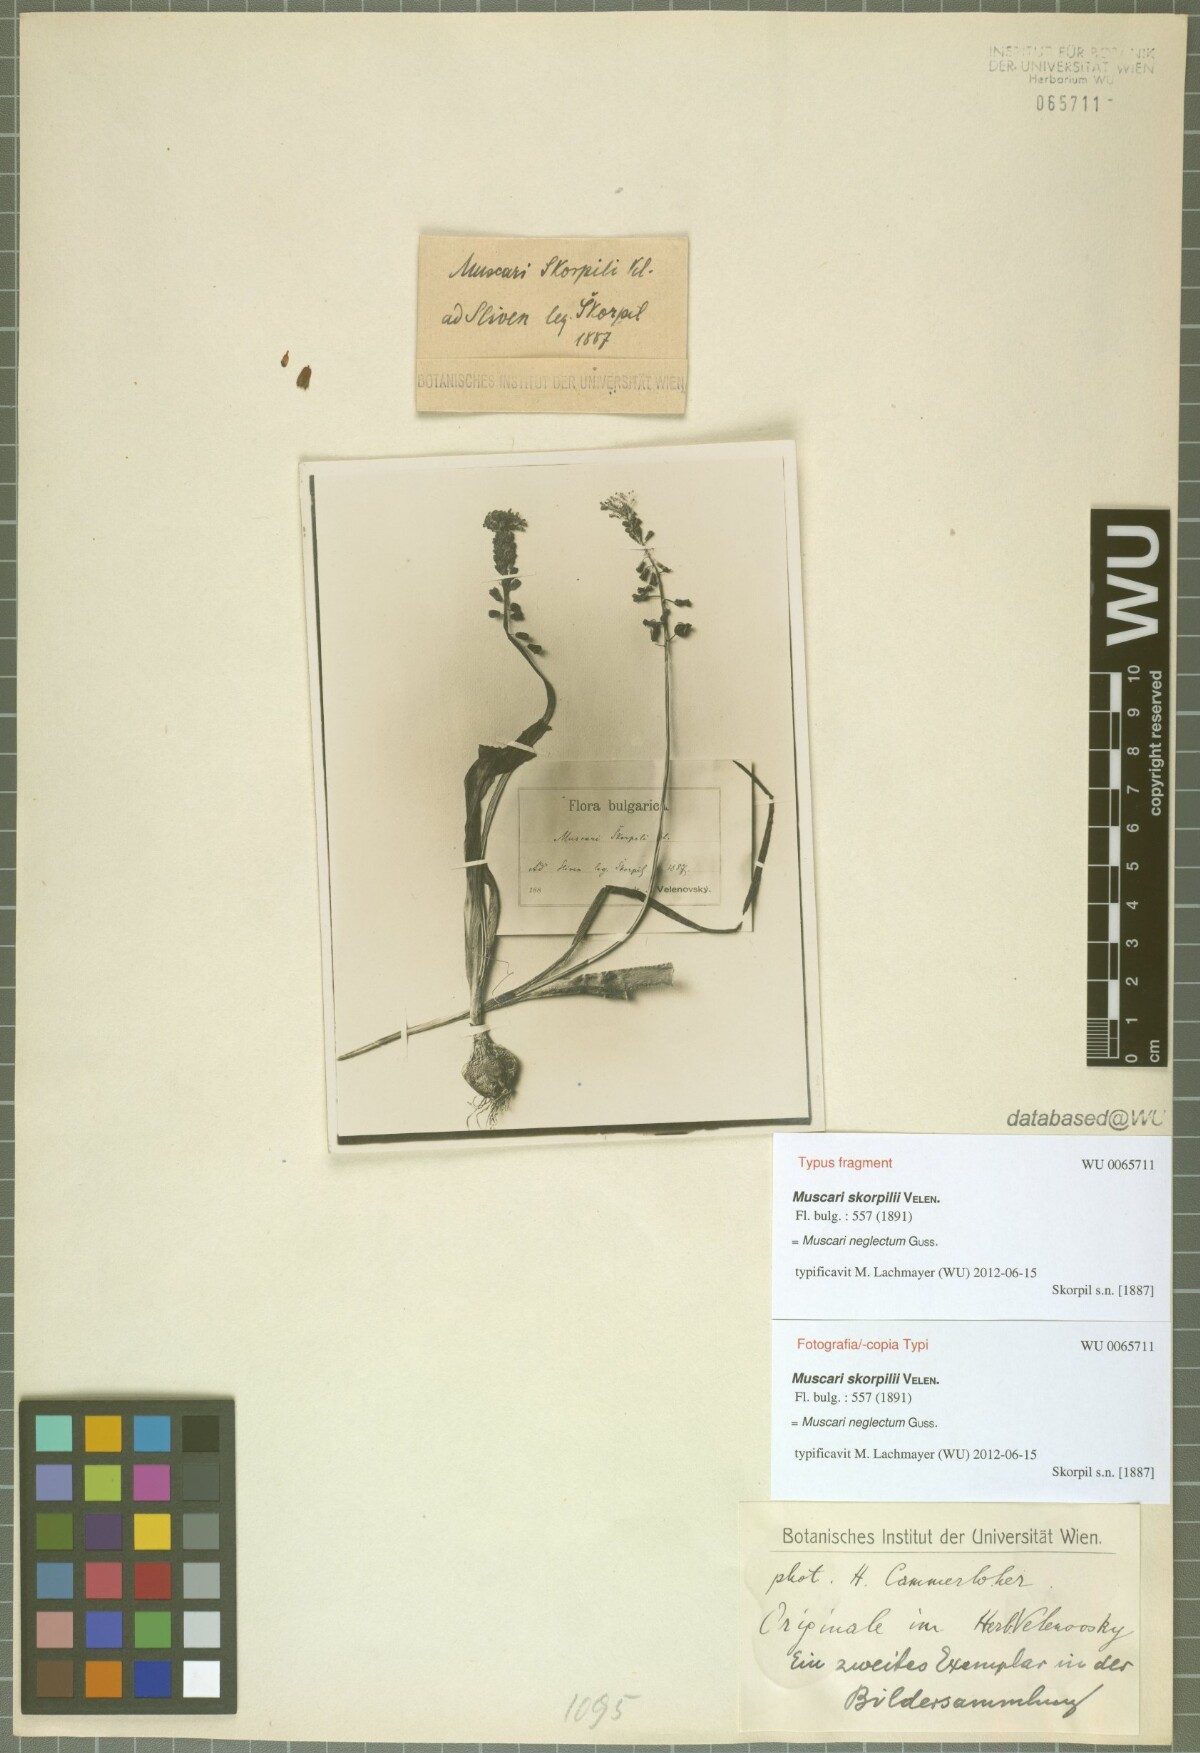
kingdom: Plantae
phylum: Tracheophyta
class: Liliopsida
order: Asparagales
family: Asparagaceae
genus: Muscari
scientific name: Muscari neglectum
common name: Grape-hyacinth
